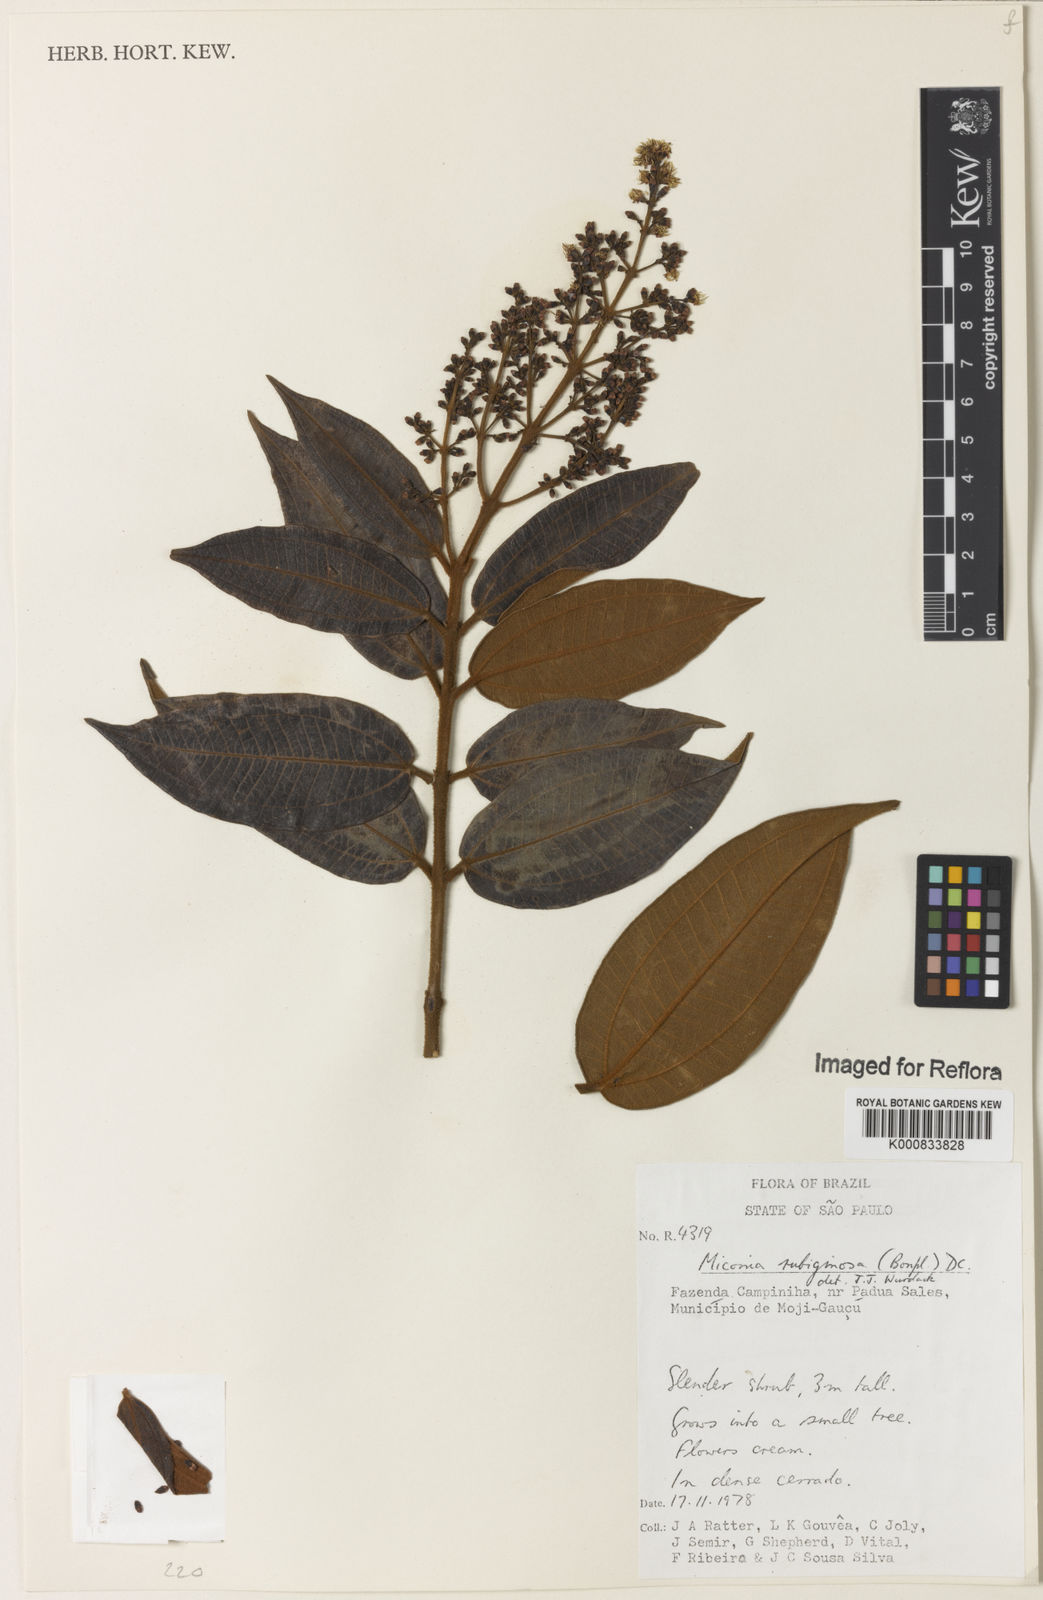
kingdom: Plantae
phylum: Tracheophyta
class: Magnoliopsida
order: Myrtales
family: Melastomataceae
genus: Miconia
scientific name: Miconia rubiginosa
